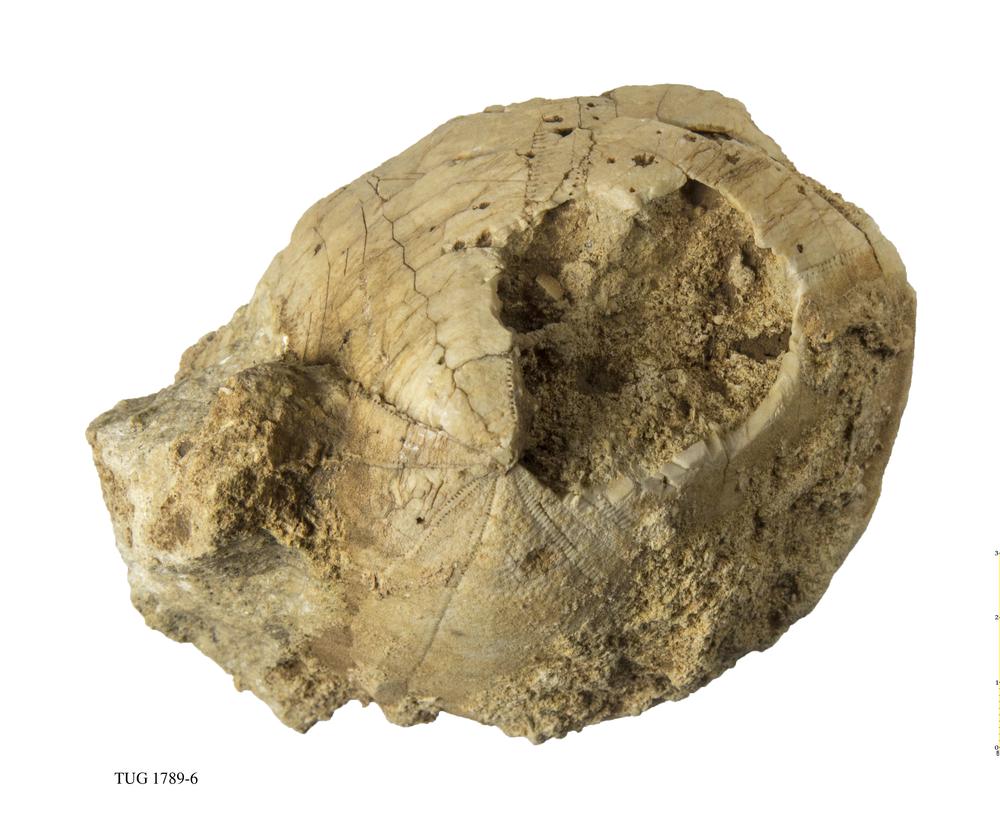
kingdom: Animalia
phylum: Echinodermata
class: Echinoidea
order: Clypeasteroida
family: Clypeasteridae
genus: Clypeaster
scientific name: Clypeaster
